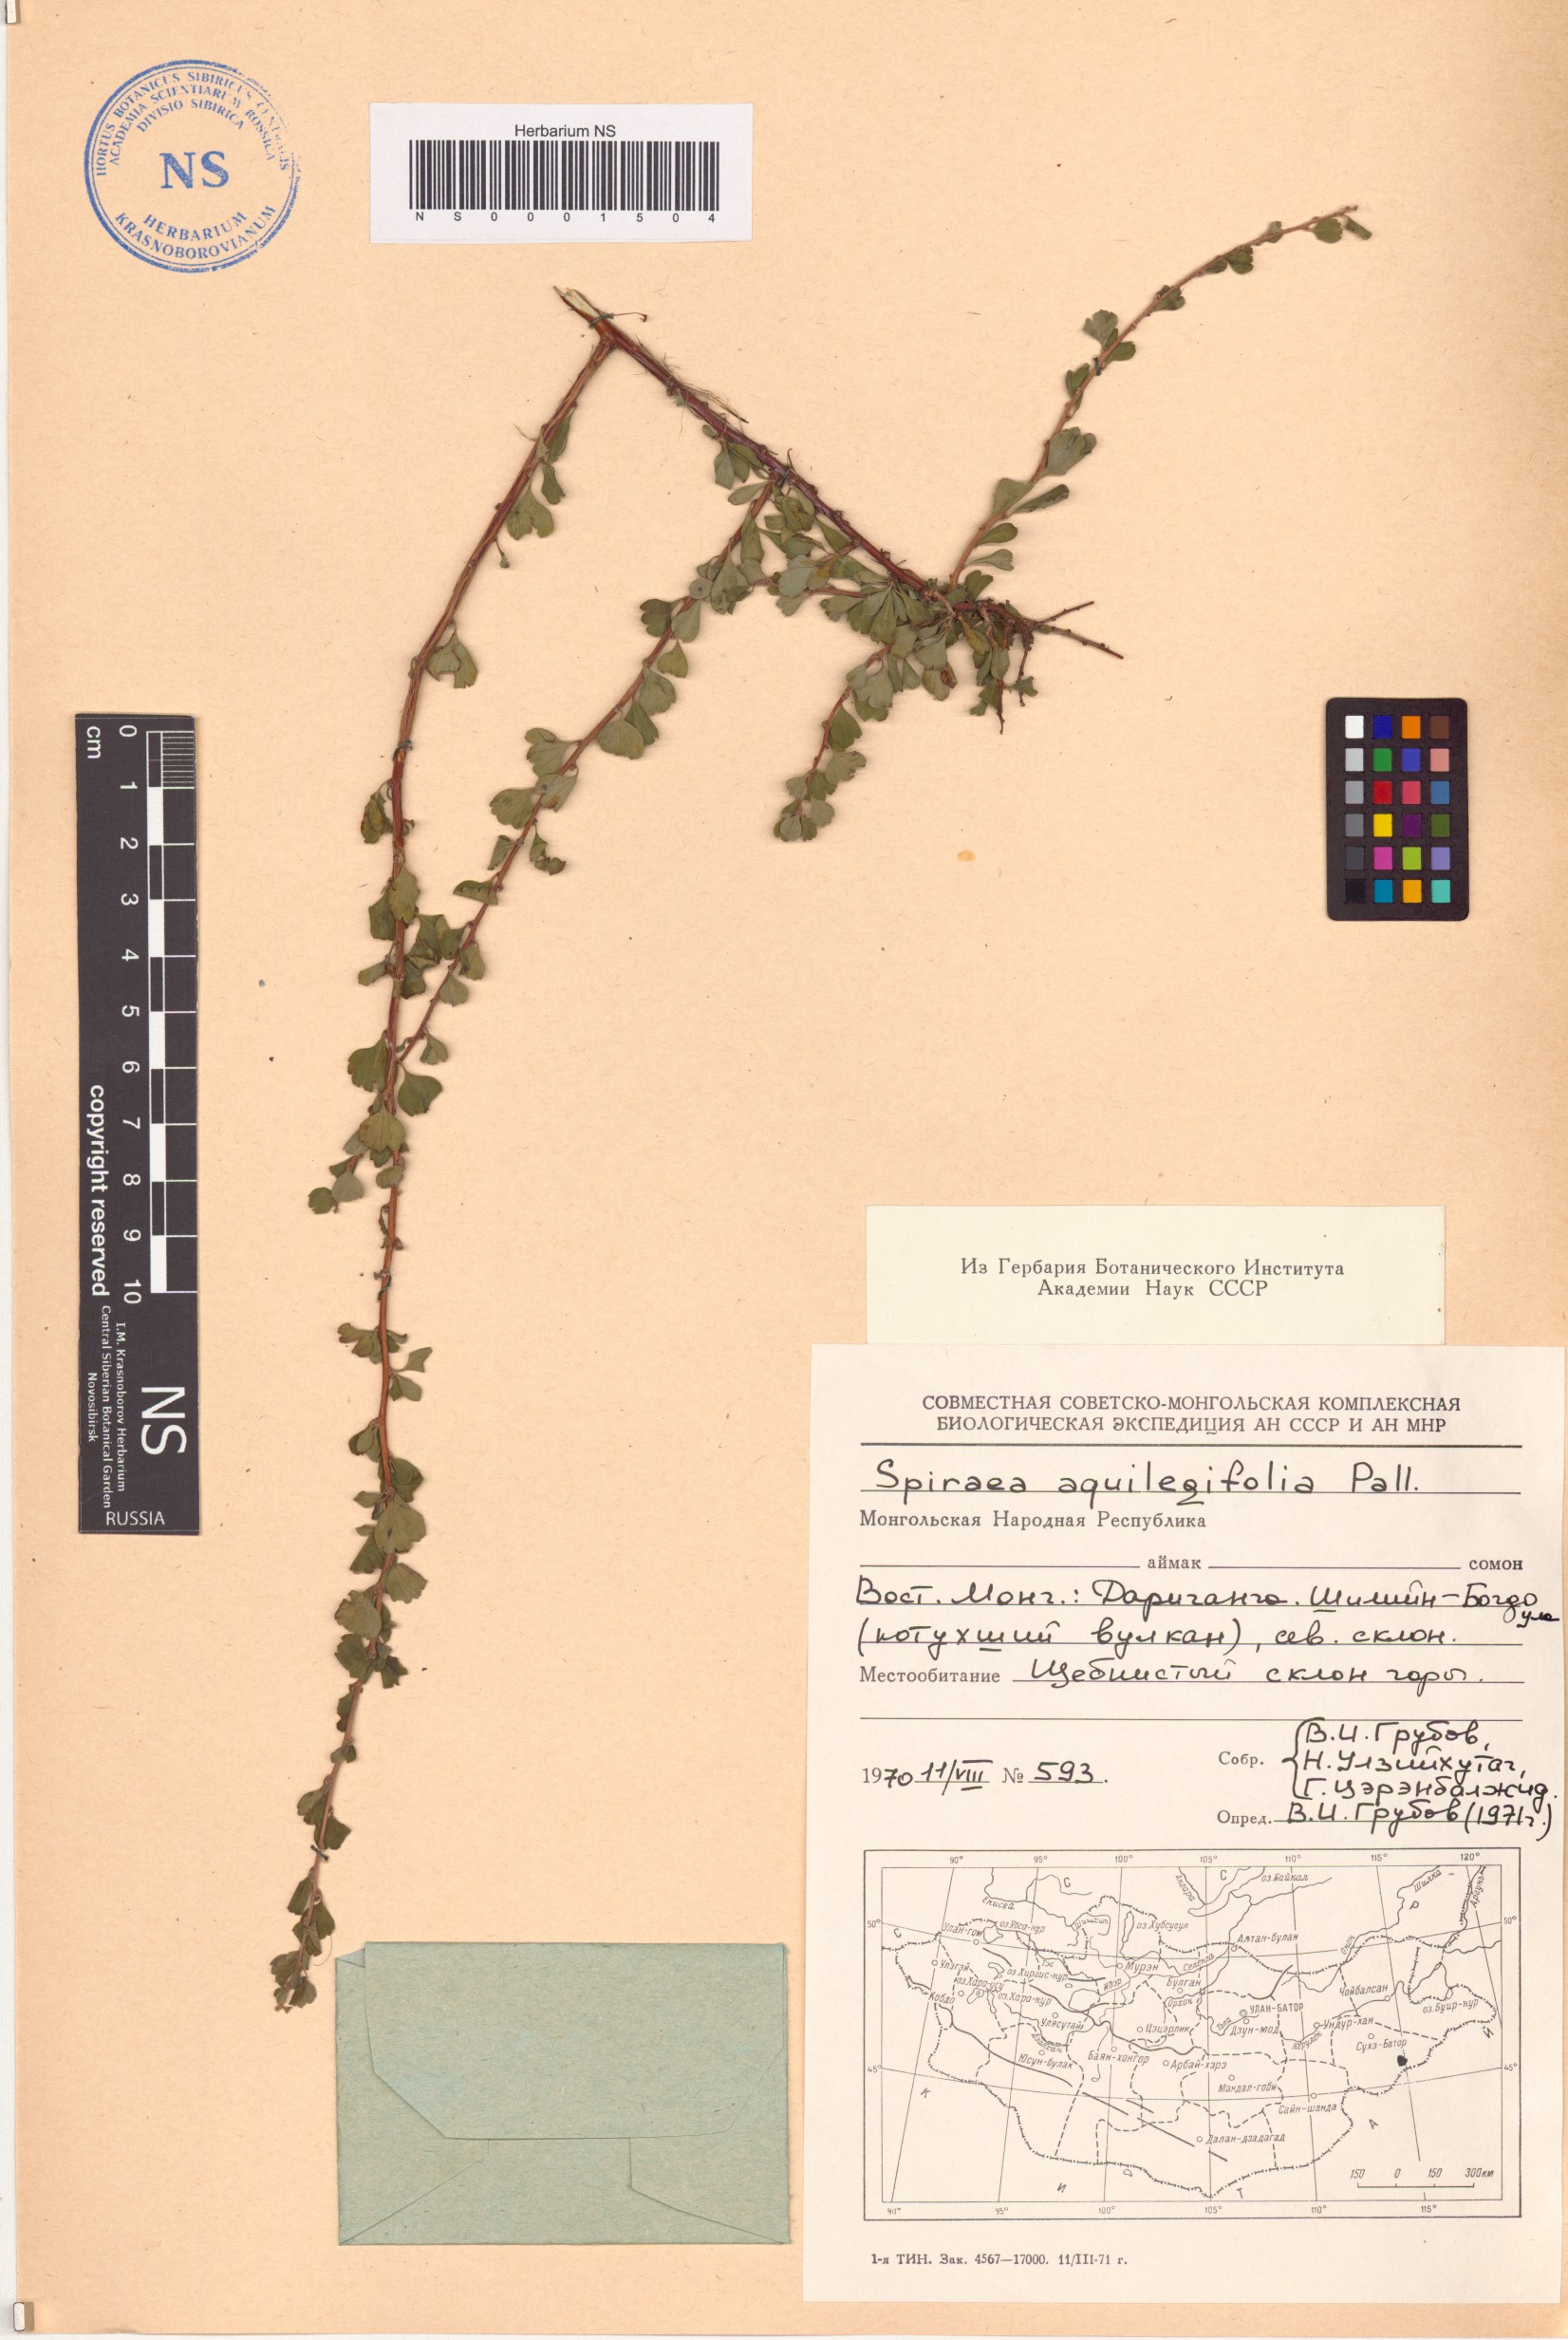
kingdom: Plantae
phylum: Tracheophyta
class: Magnoliopsida
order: Rosales
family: Rosaceae
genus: Spiraea
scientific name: Spiraea aquilegifolia
